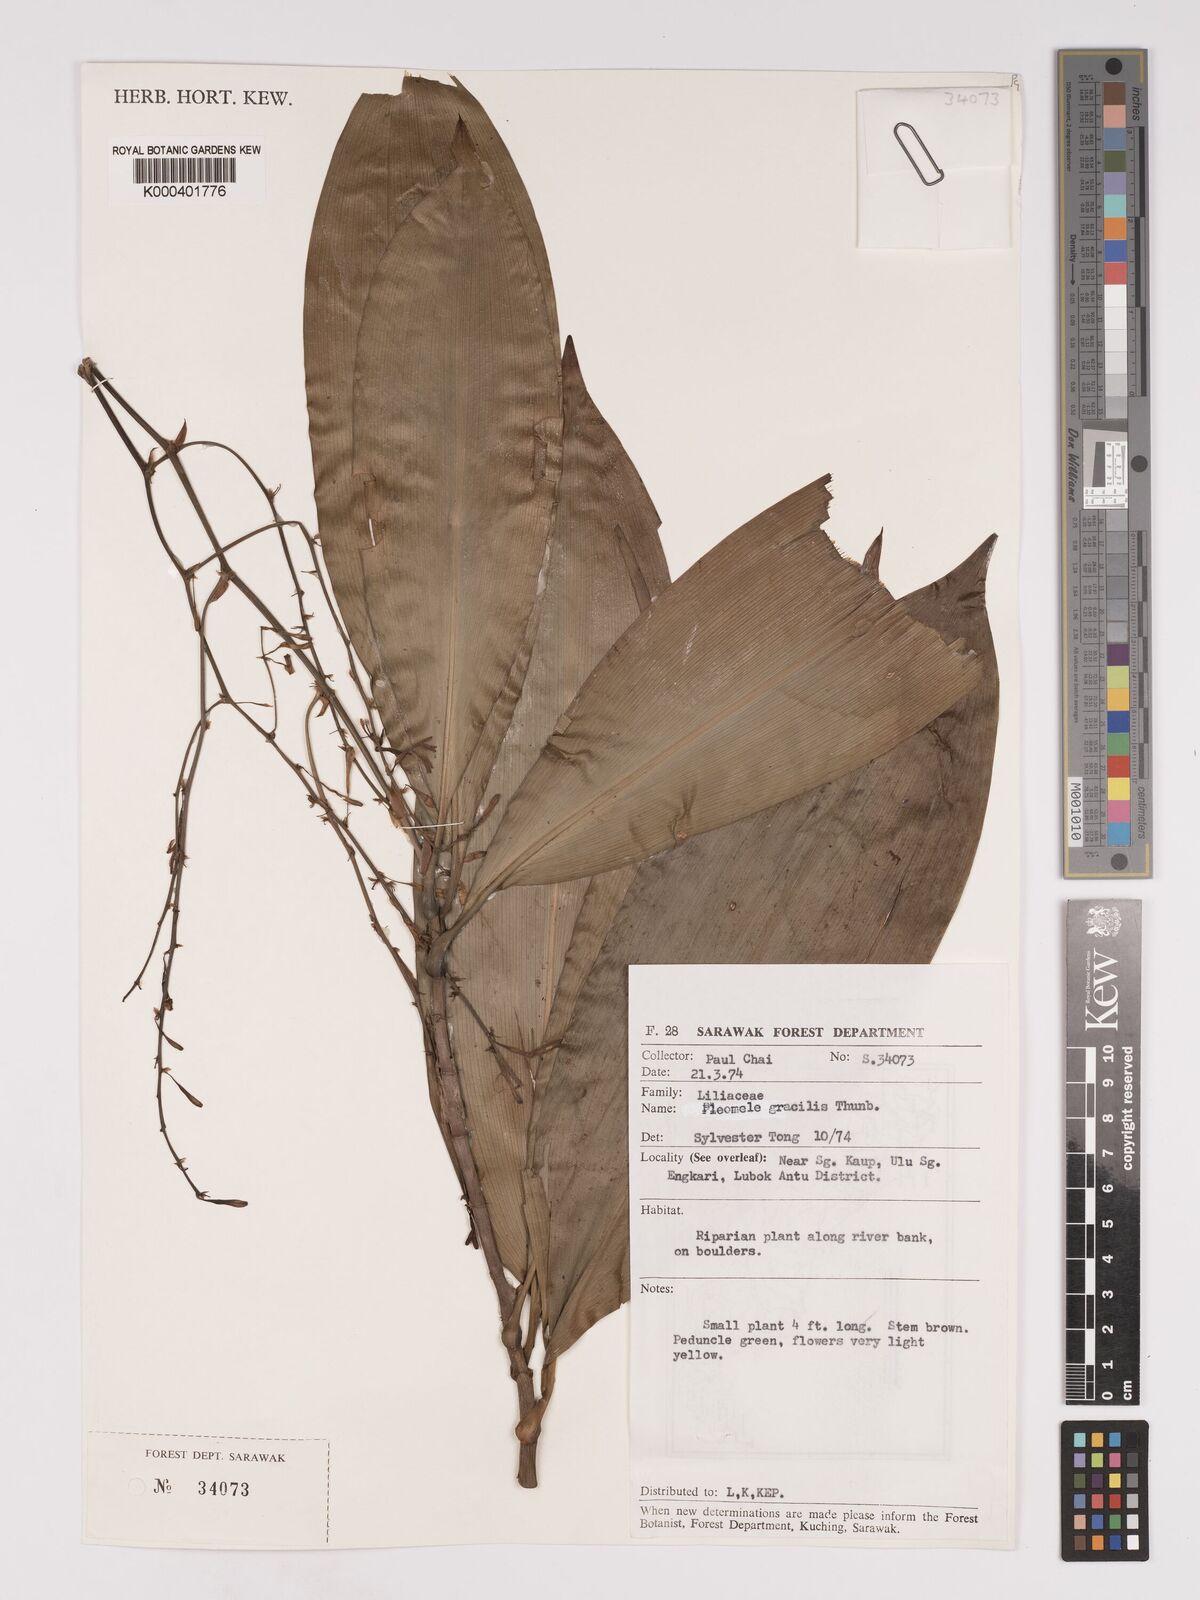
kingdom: Plantae
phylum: Tracheophyta
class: Liliopsida
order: Asparagales
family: Asparagaceae
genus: Dracaena
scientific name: Dracaena
